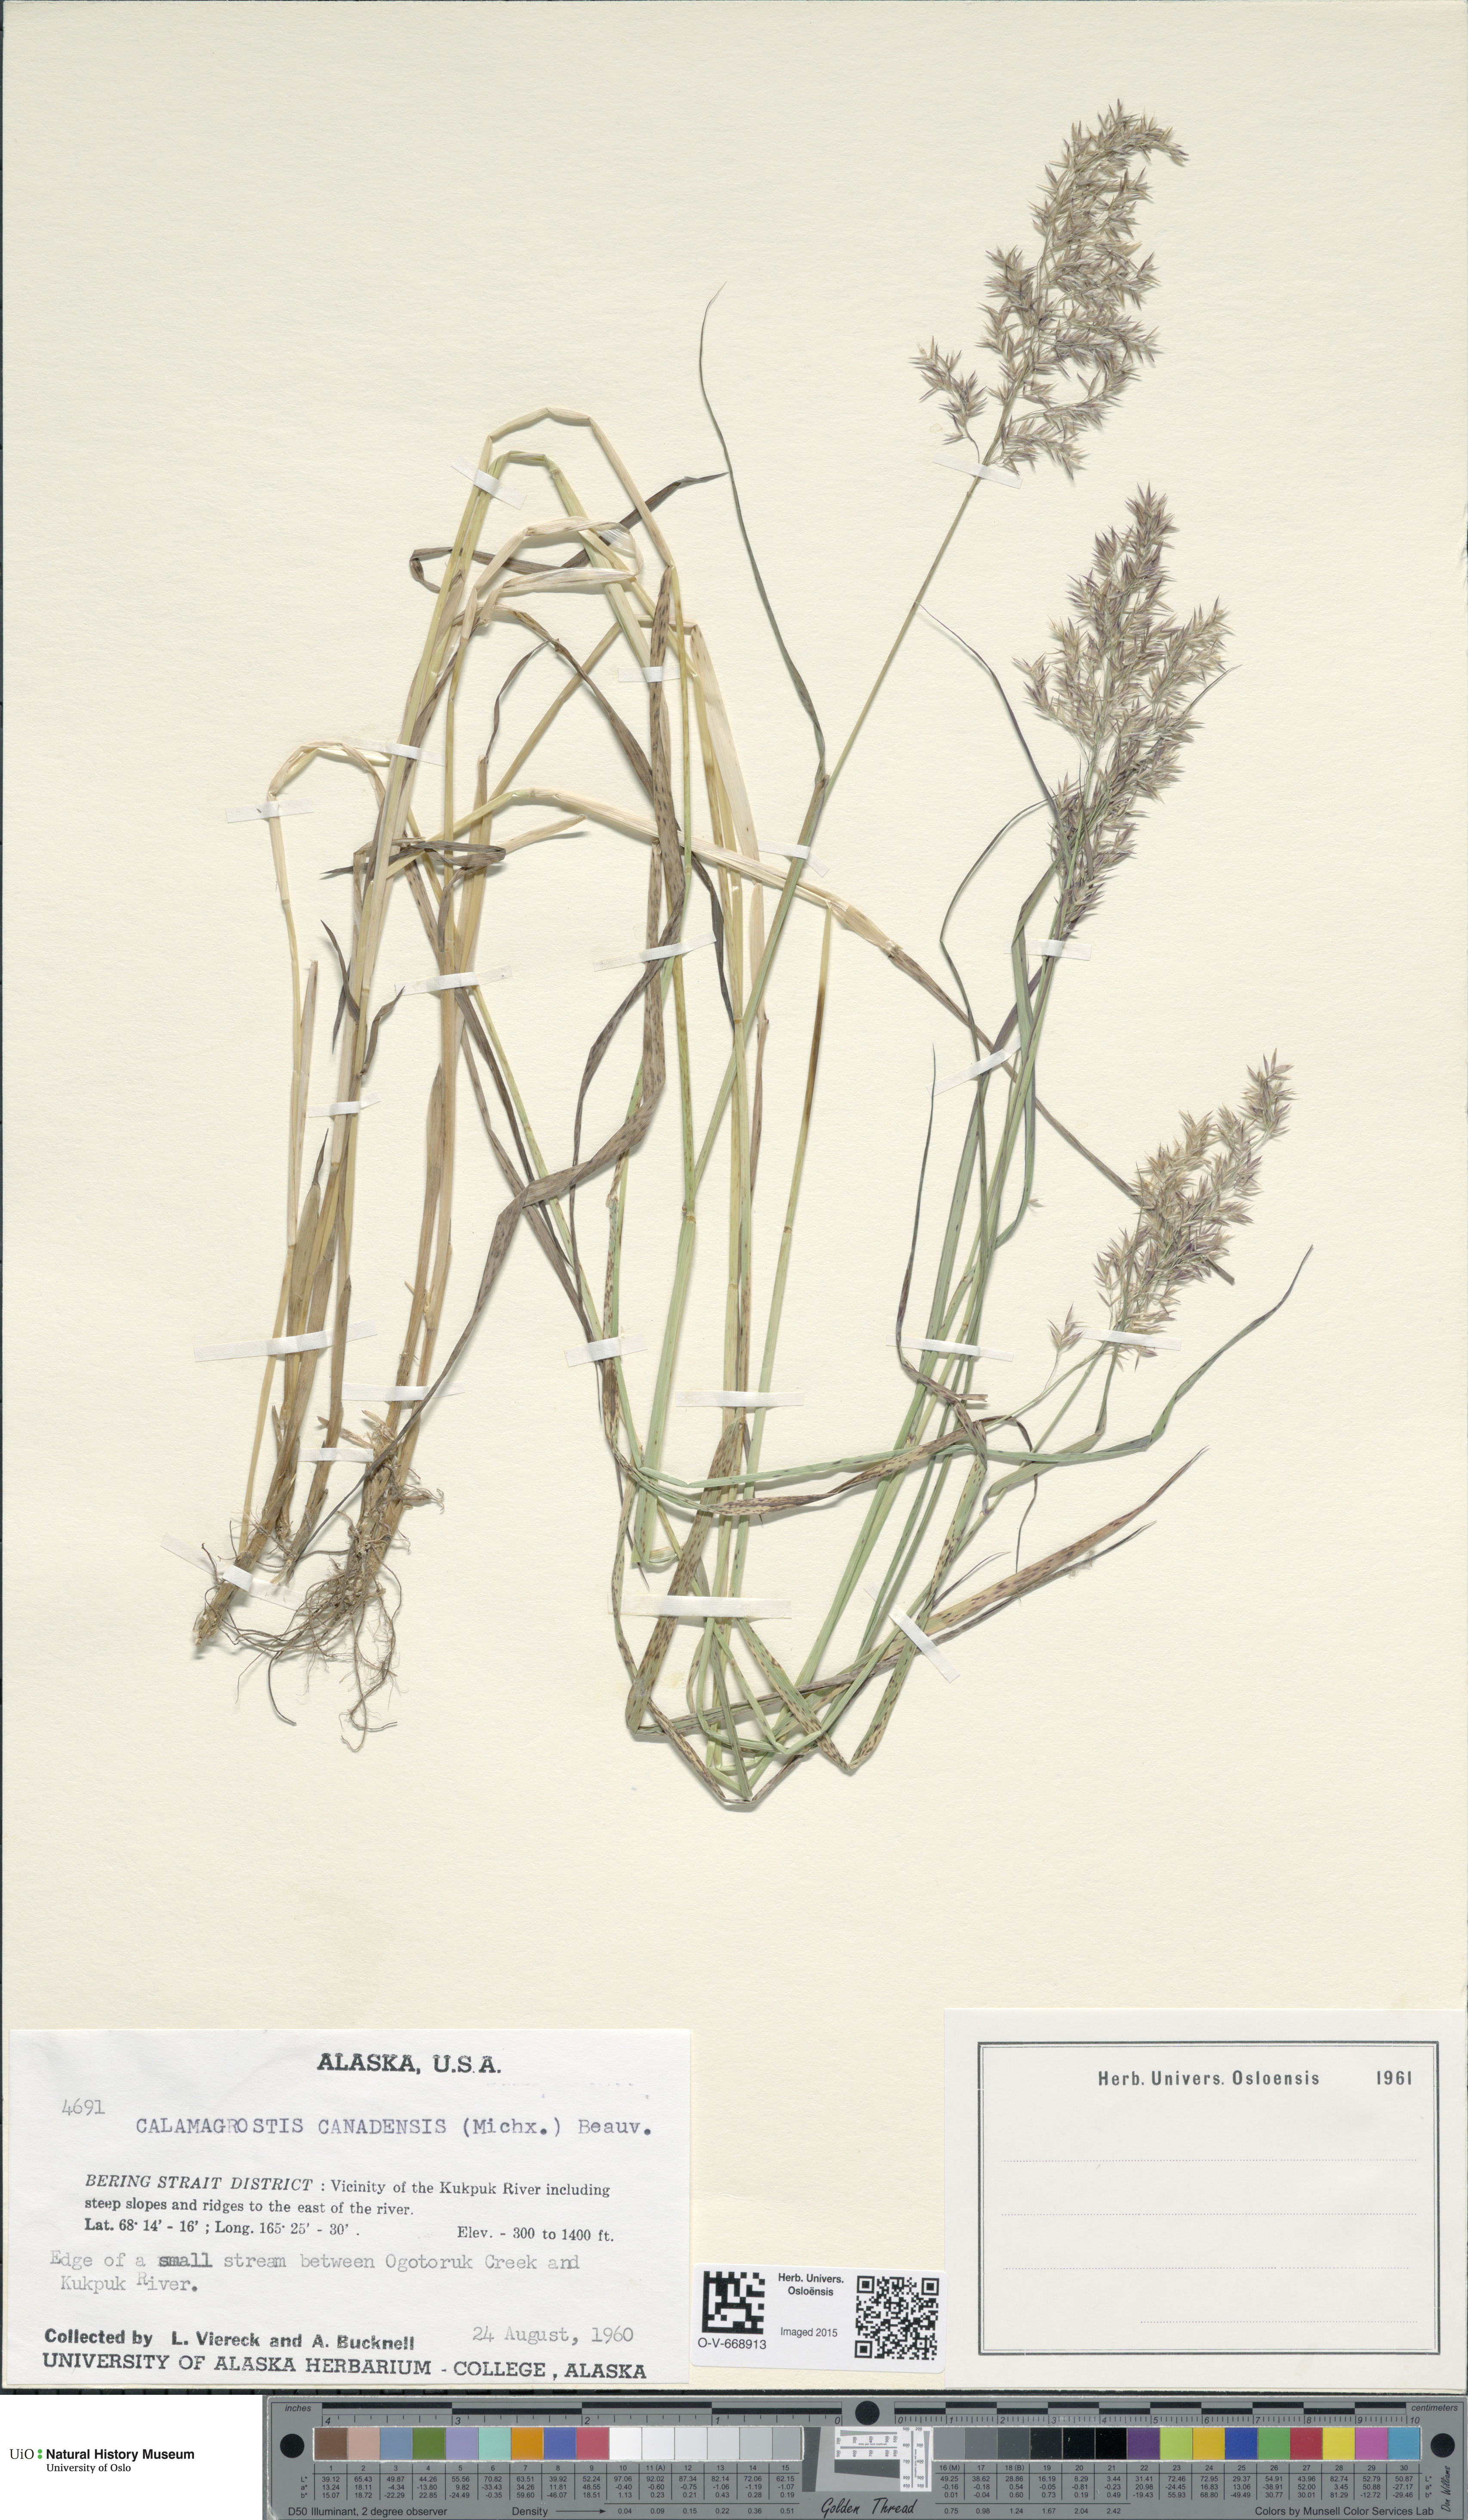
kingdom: Plantae
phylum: Tracheophyta
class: Liliopsida
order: Poales
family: Poaceae
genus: Calamagrostis
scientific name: Calamagrostis canadensis
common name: Canada bluejoint
